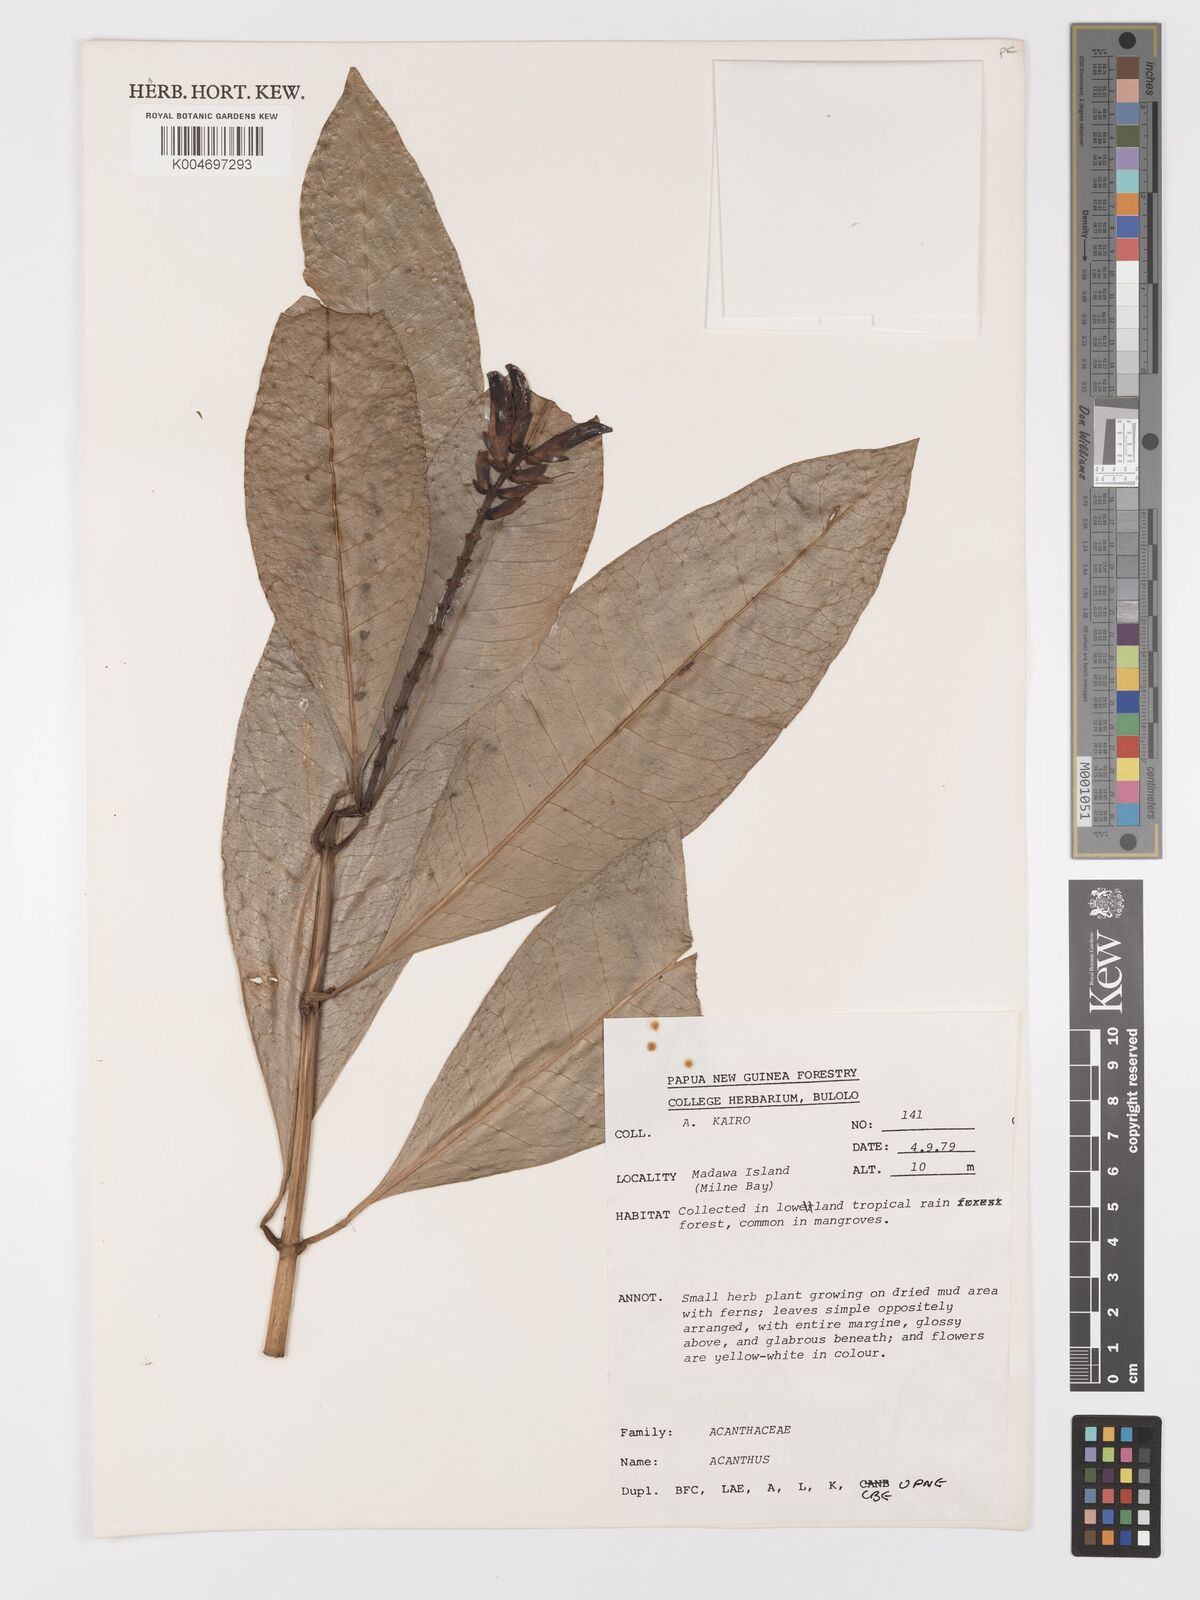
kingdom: Plantae
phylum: Tracheophyta
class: Magnoliopsida
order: Lamiales
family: Acanthaceae
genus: Acanthus
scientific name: Acanthus ilicifolius
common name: Holy mangrove
